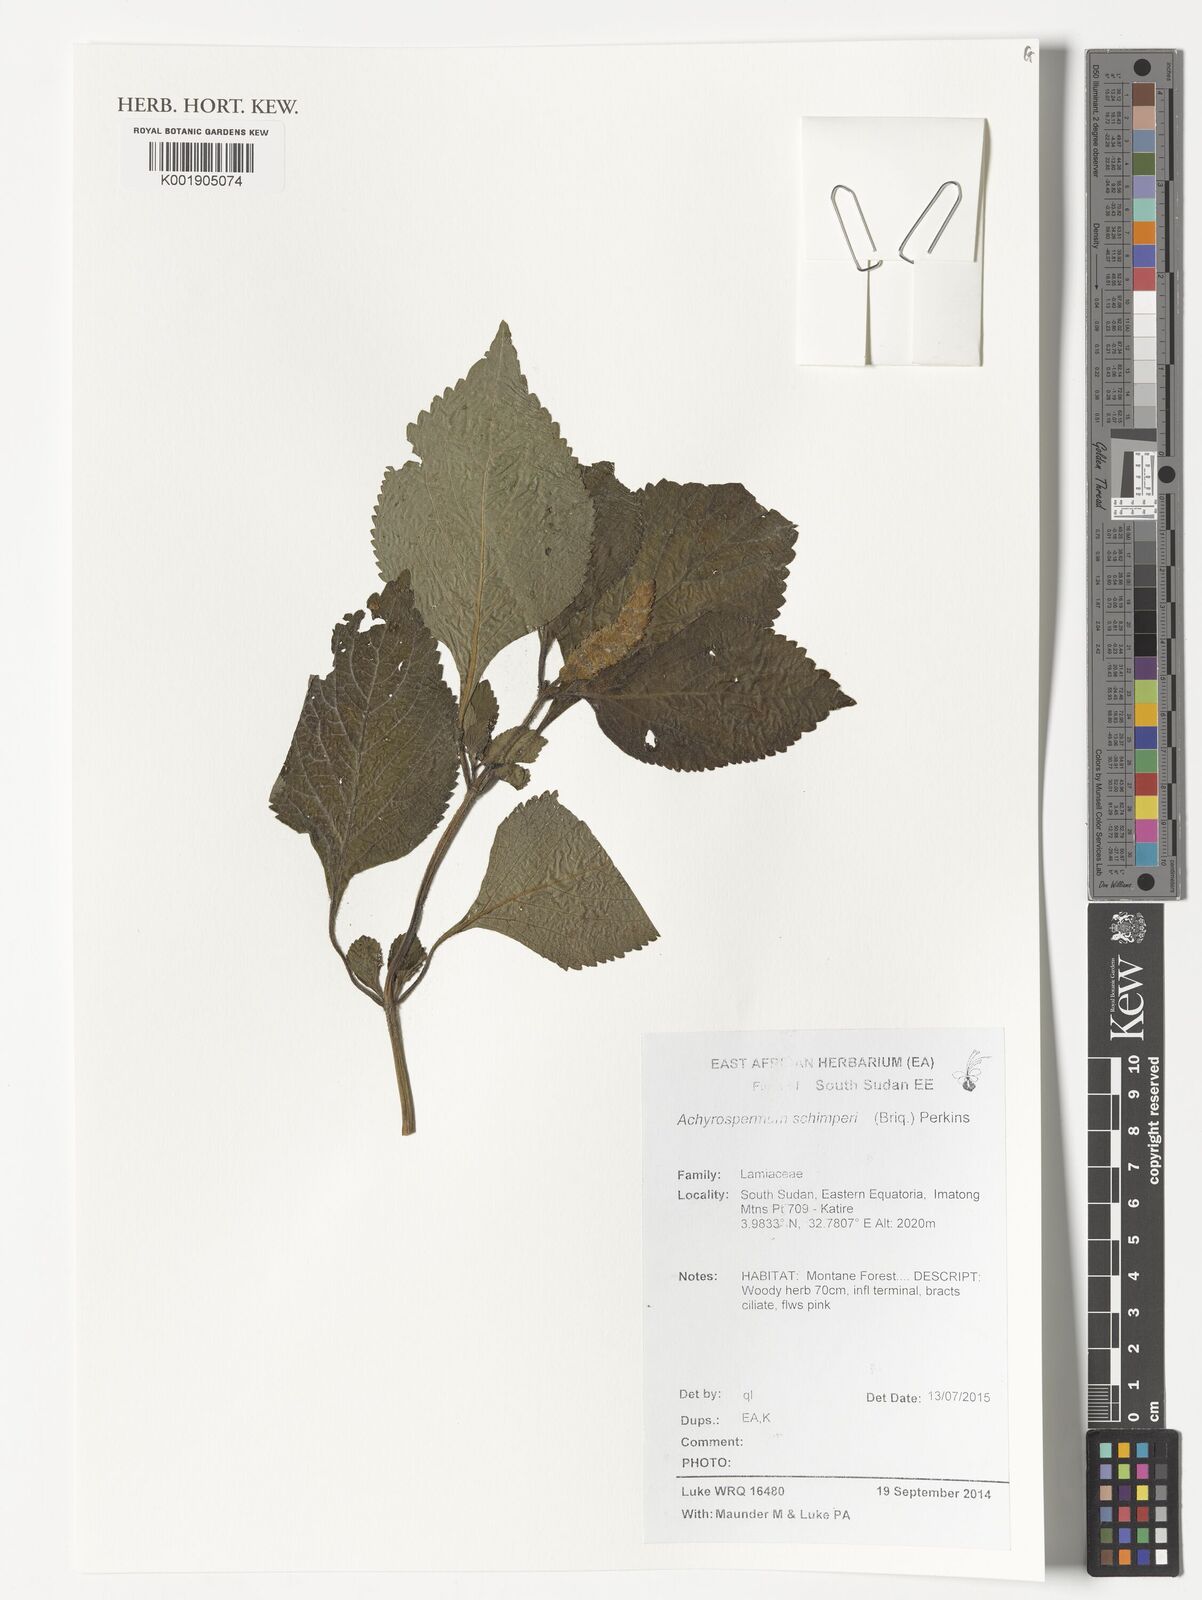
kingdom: Plantae
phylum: Tracheophyta
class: Magnoliopsida
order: Lamiales
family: Lamiaceae
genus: Achyrospermum
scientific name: Achyrospermum schimperi
